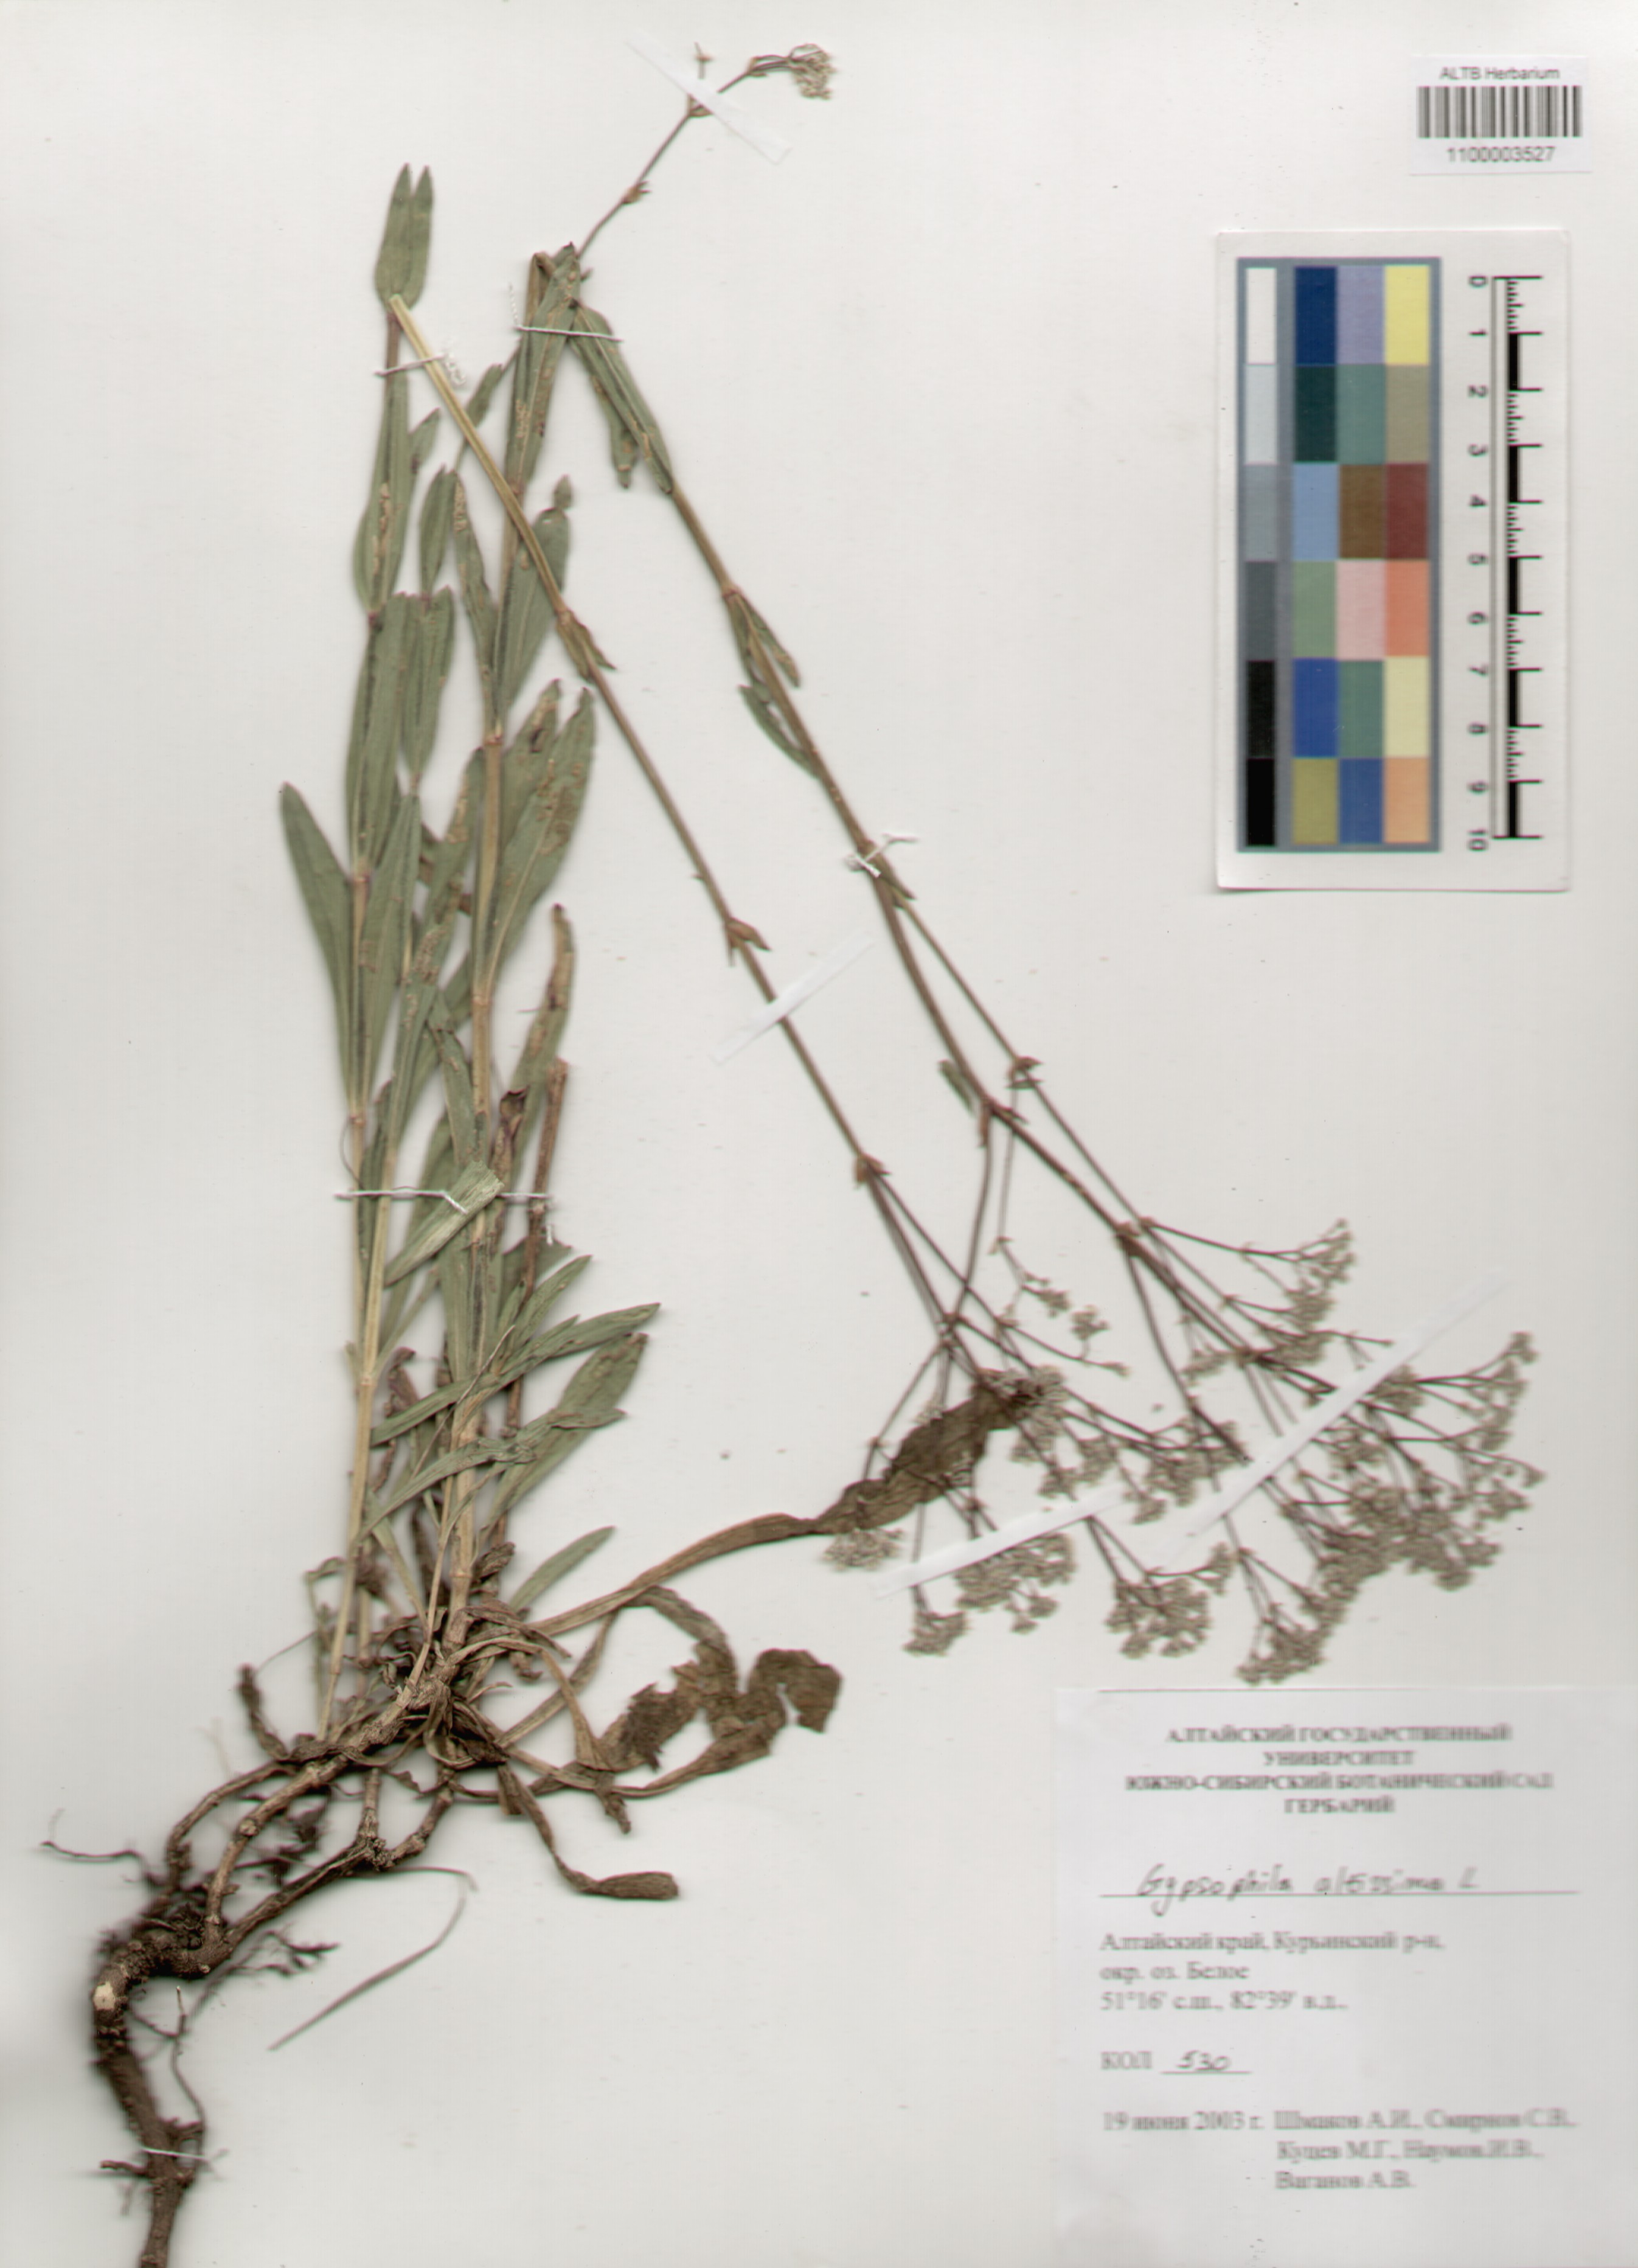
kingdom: Plantae
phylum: Tracheophyta
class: Magnoliopsida
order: Caryophyllales
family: Caryophyllaceae
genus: Gypsophila
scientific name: Gypsophila altissima
